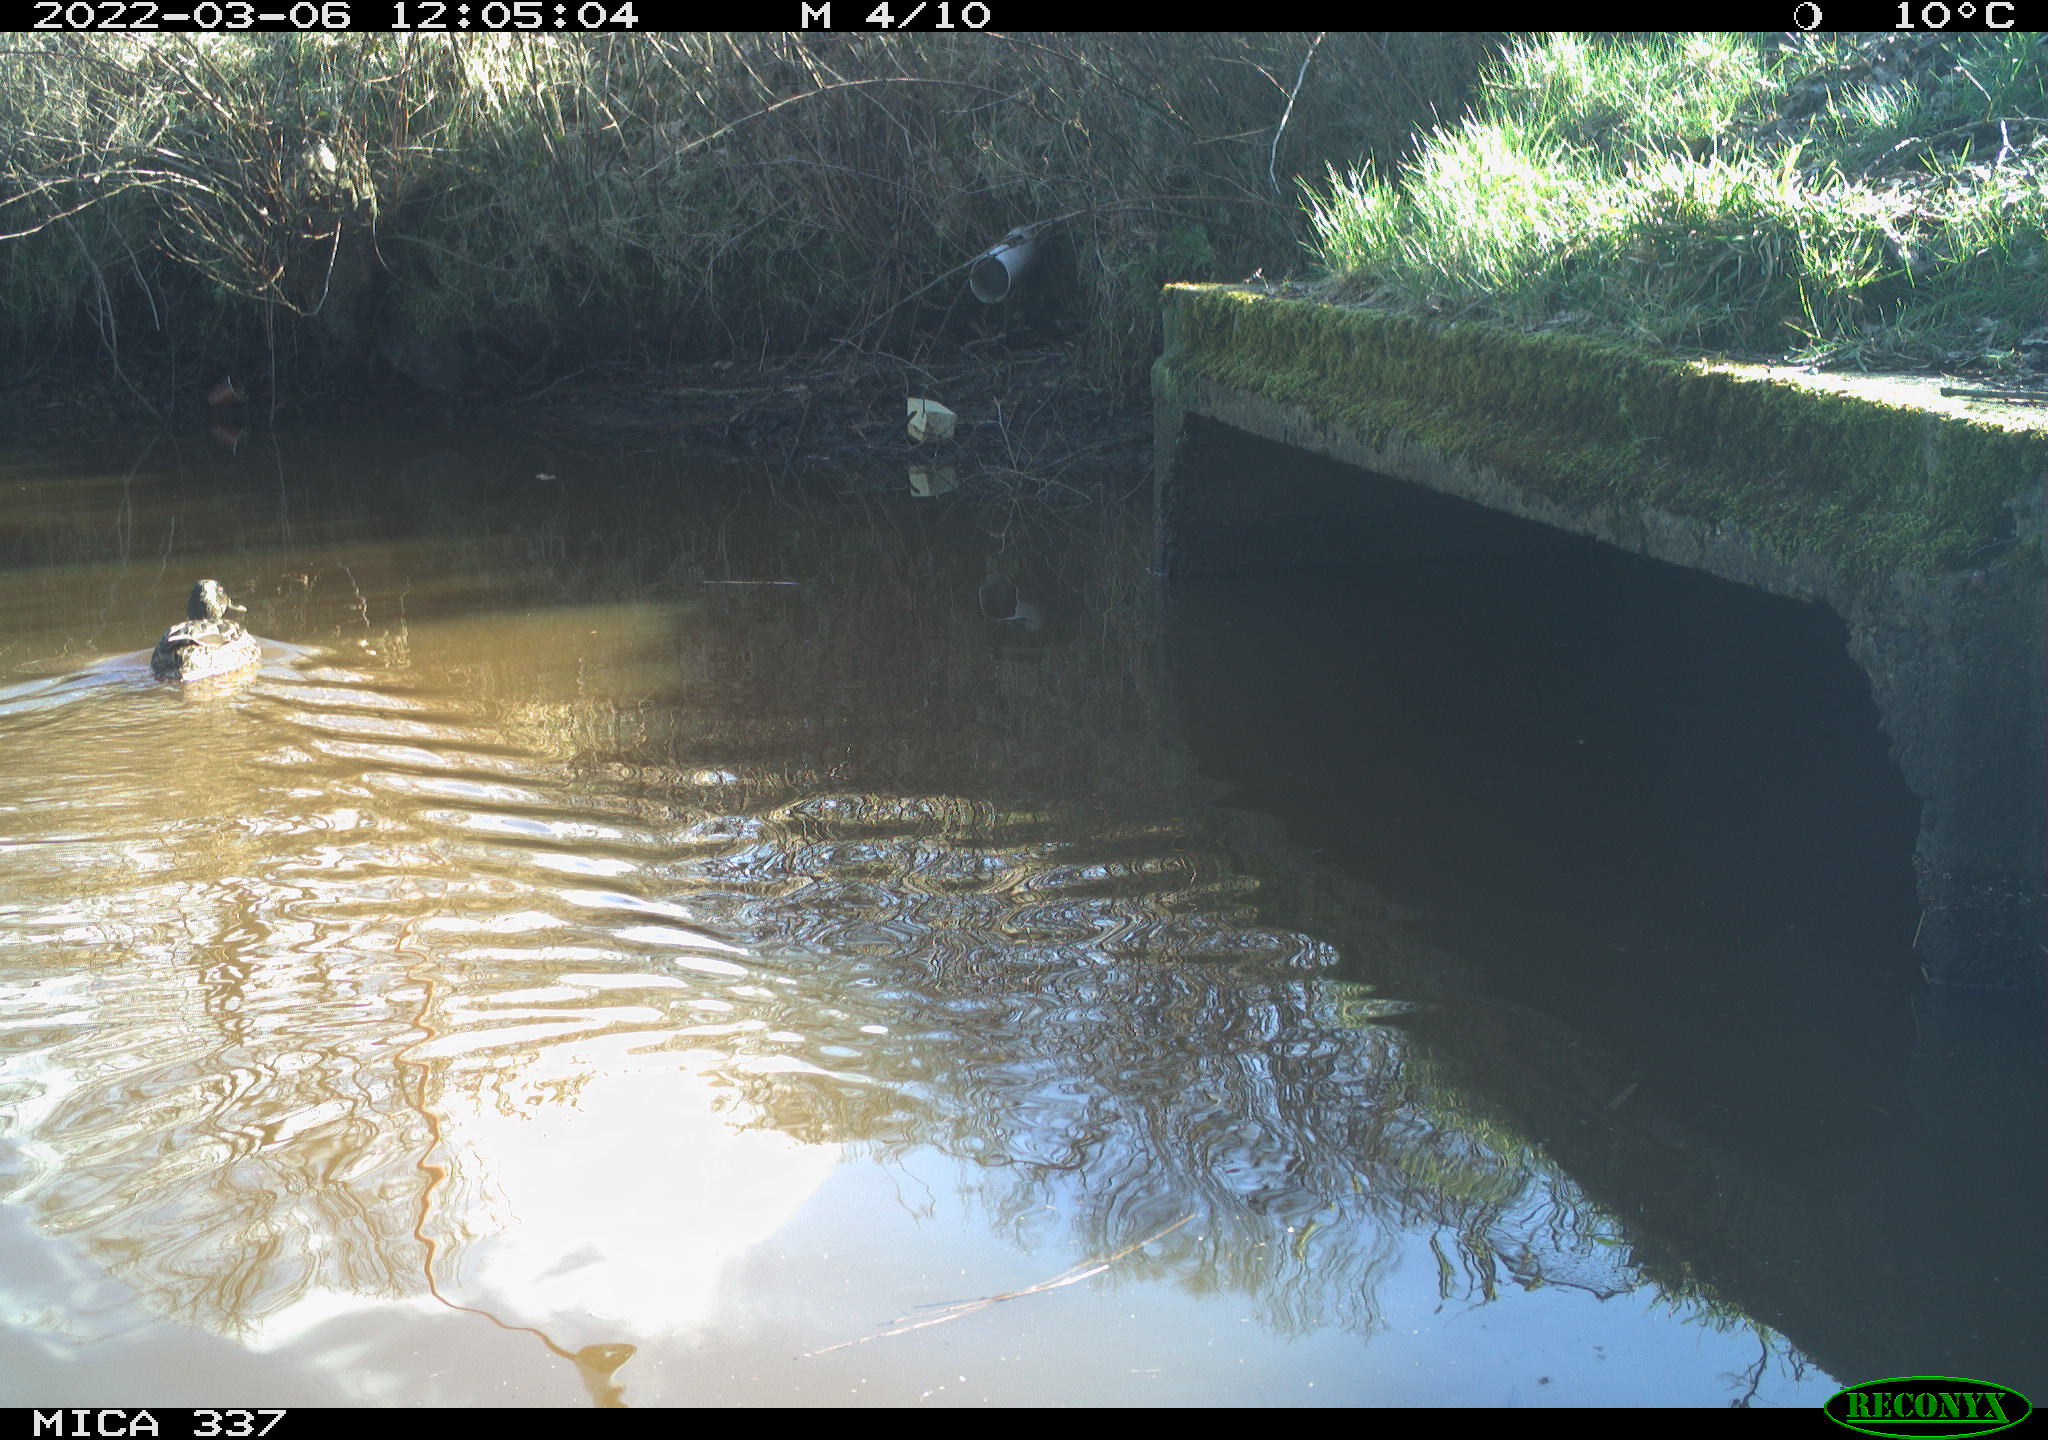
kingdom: Animalia
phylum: Chordata
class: Aves
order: Anseriformes
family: Anatidae
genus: Anas
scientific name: Anas platyrhynchos
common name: Mallard
